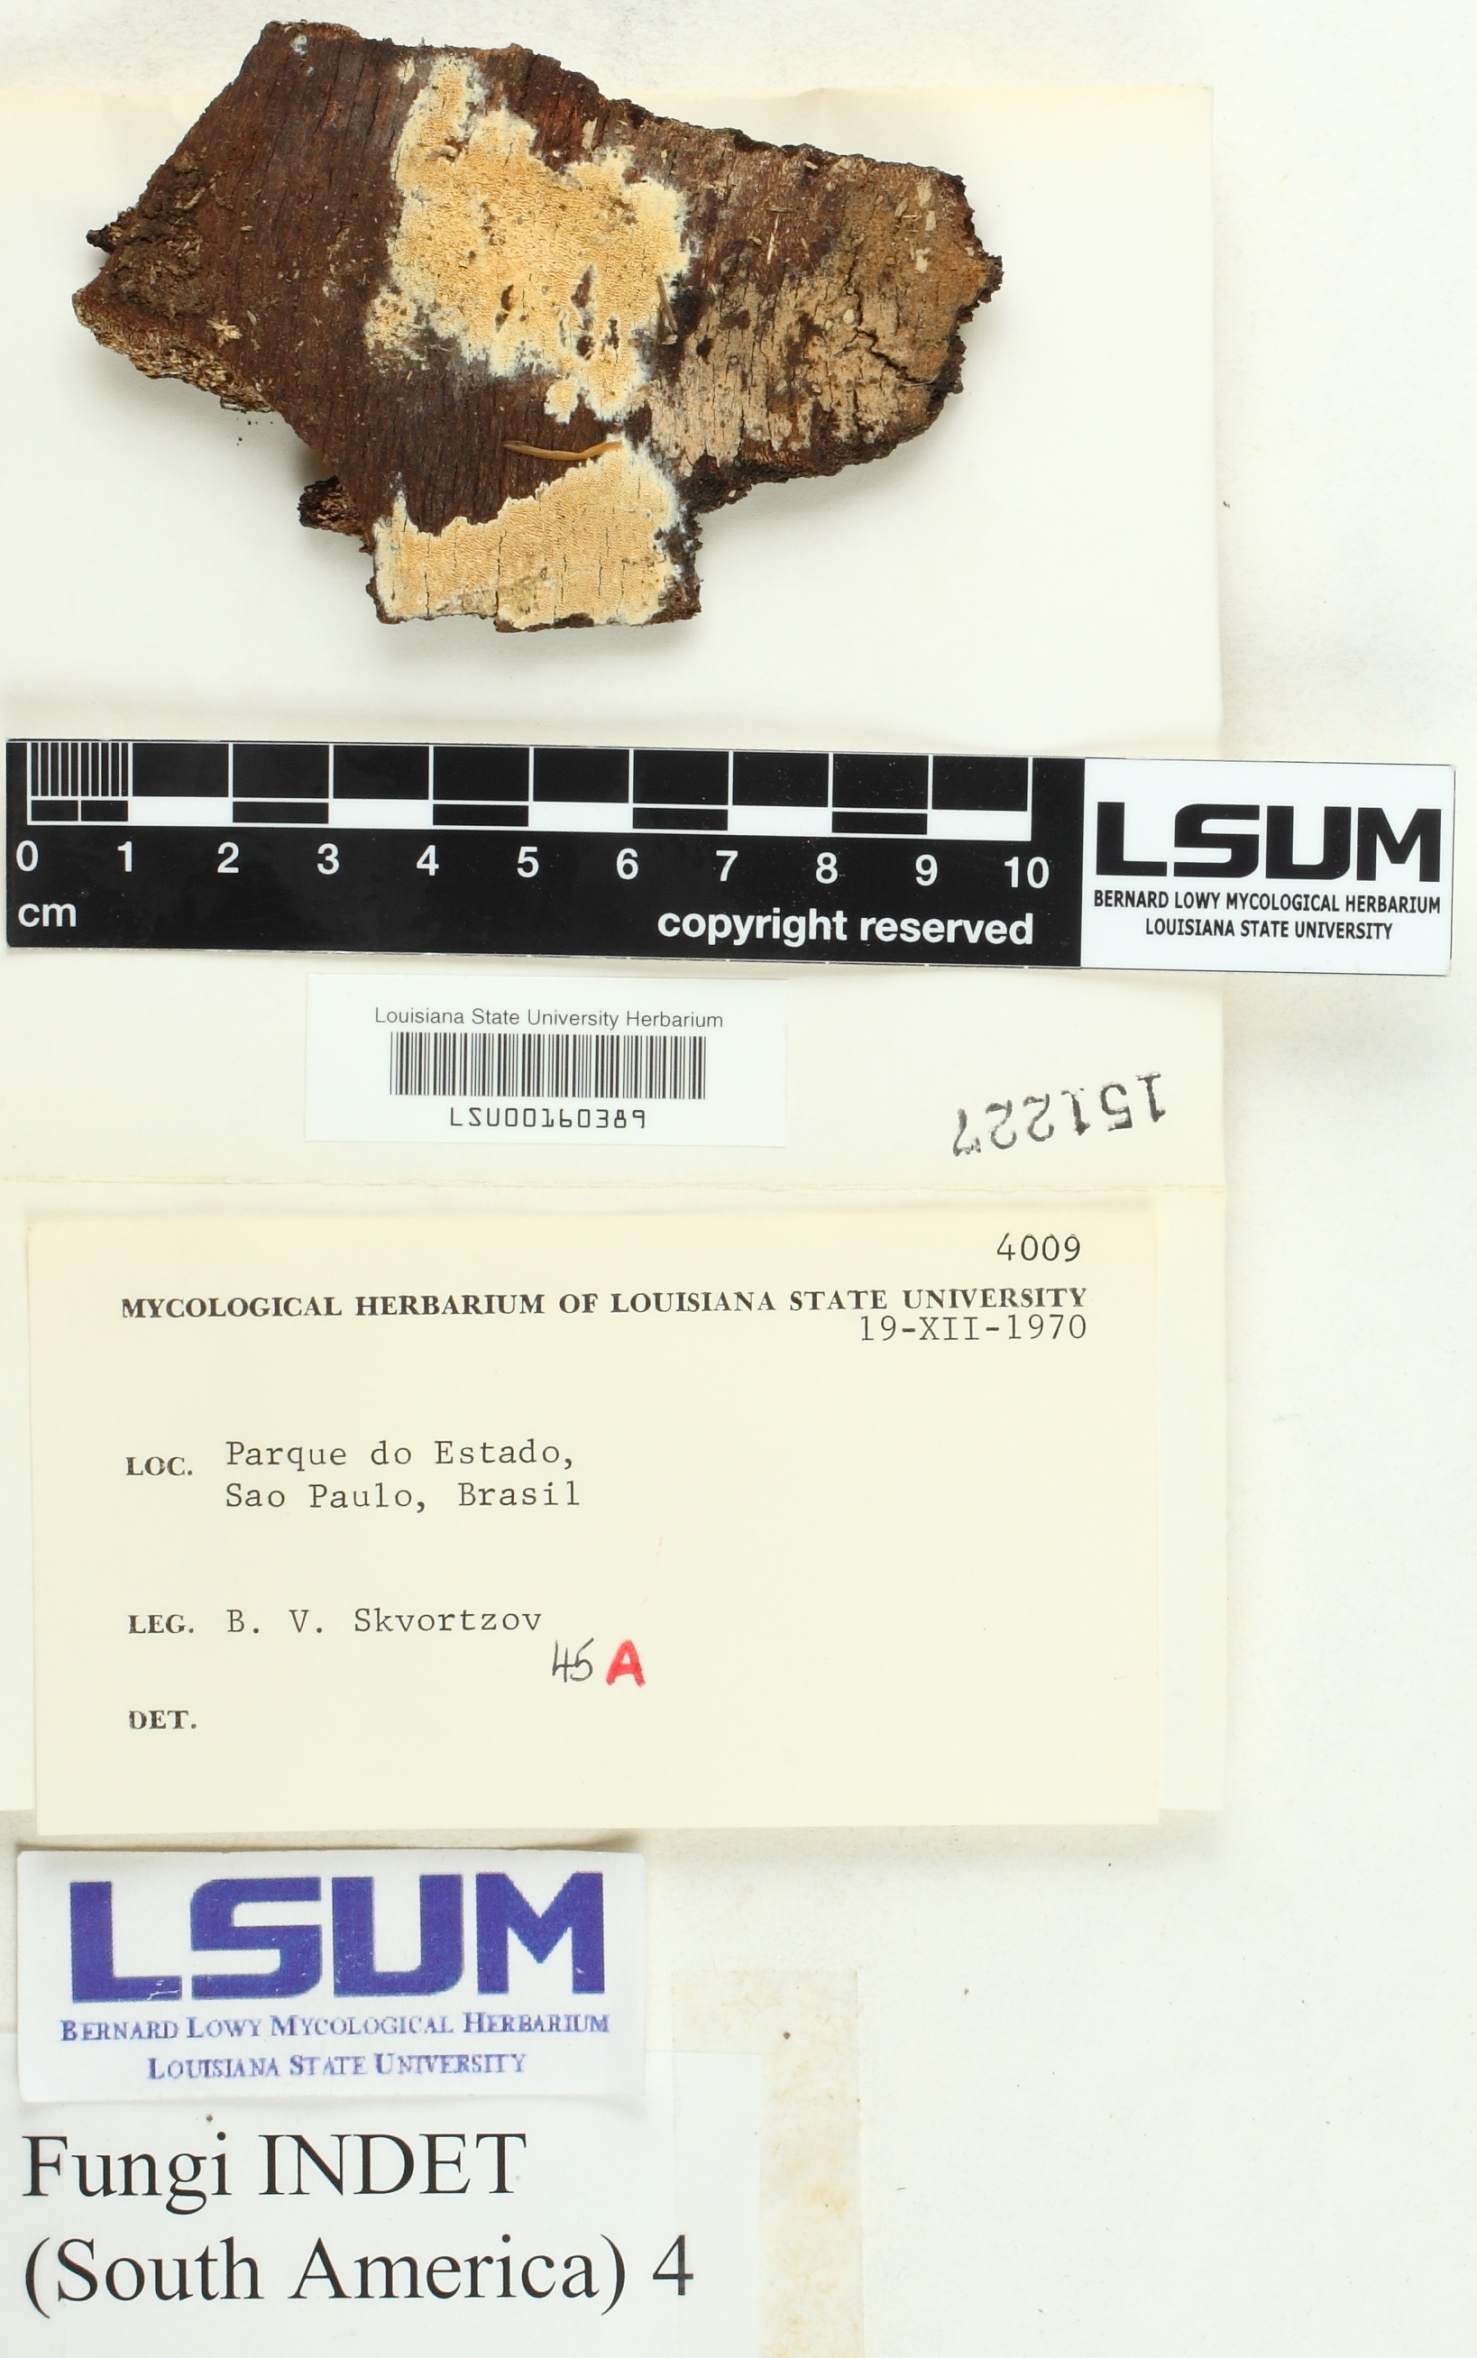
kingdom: Fungi
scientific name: Fungi
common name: Fungi
